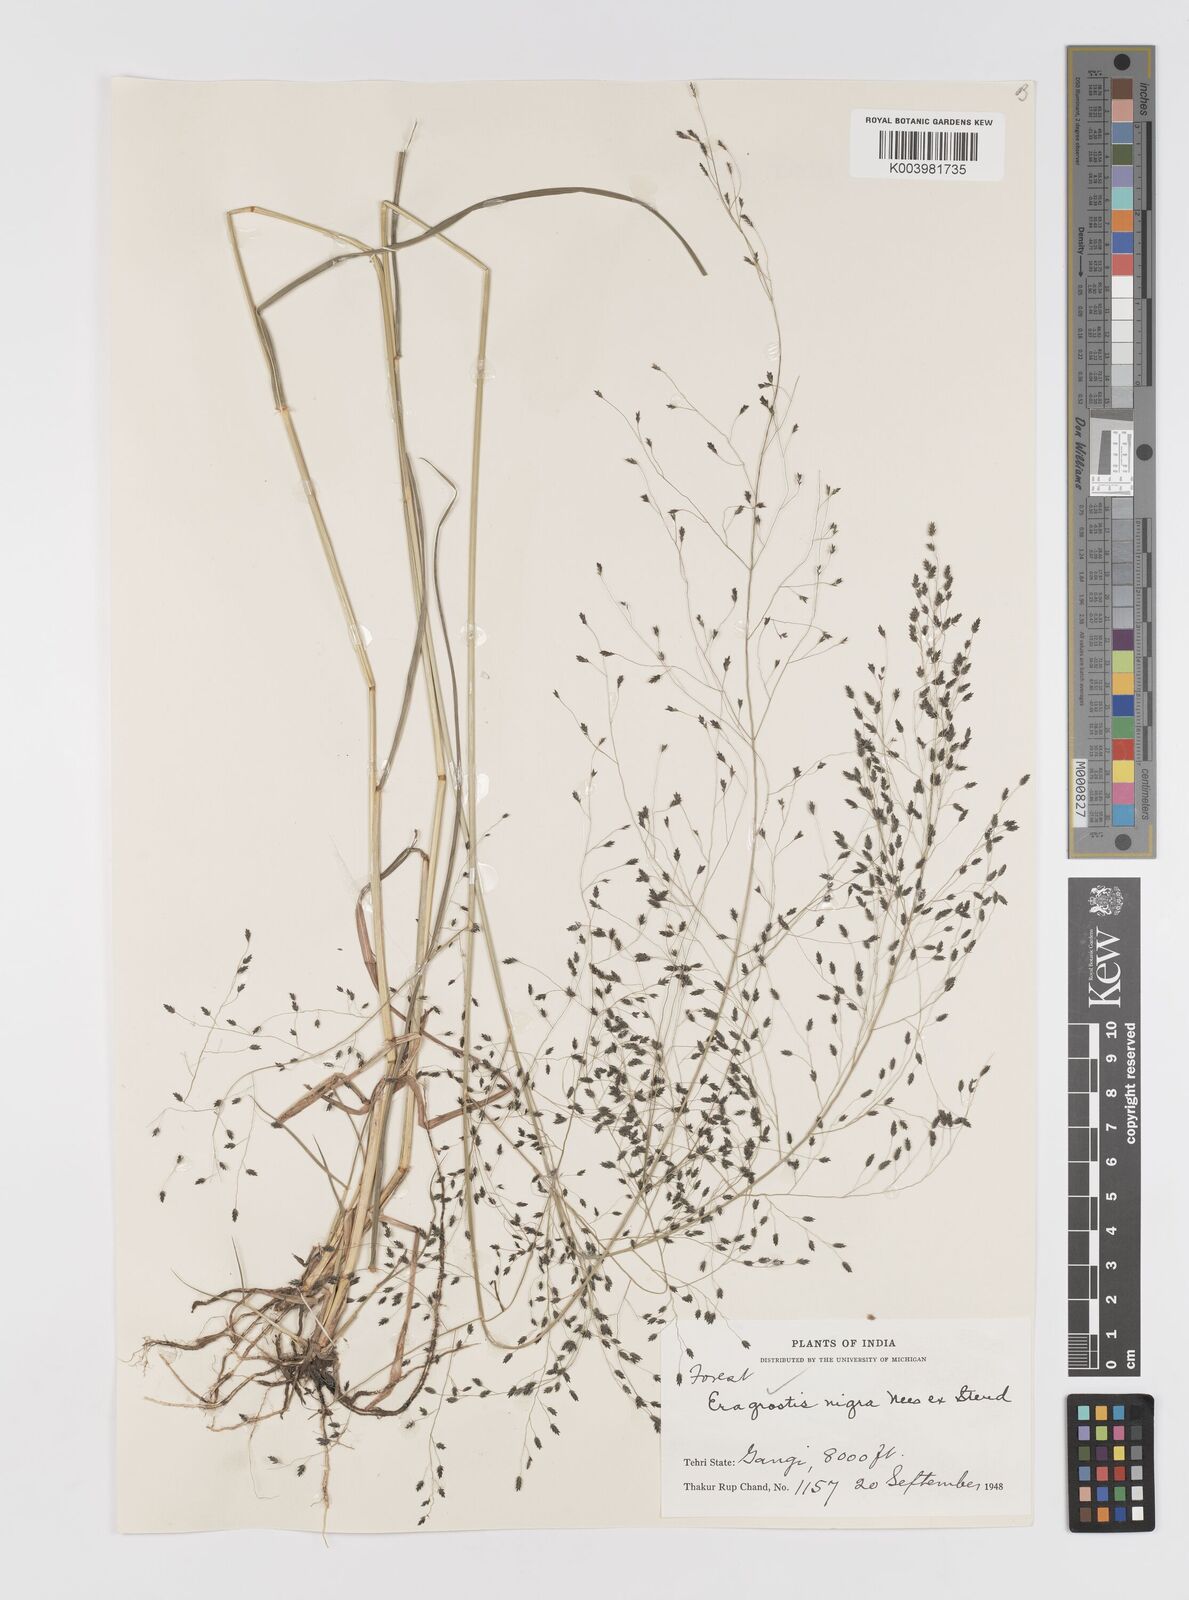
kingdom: Plantae
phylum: Tracheophyta
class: Liliopsida
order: Poales
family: Poaceae
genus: Eragrostis
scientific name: Eragrostis nigra
